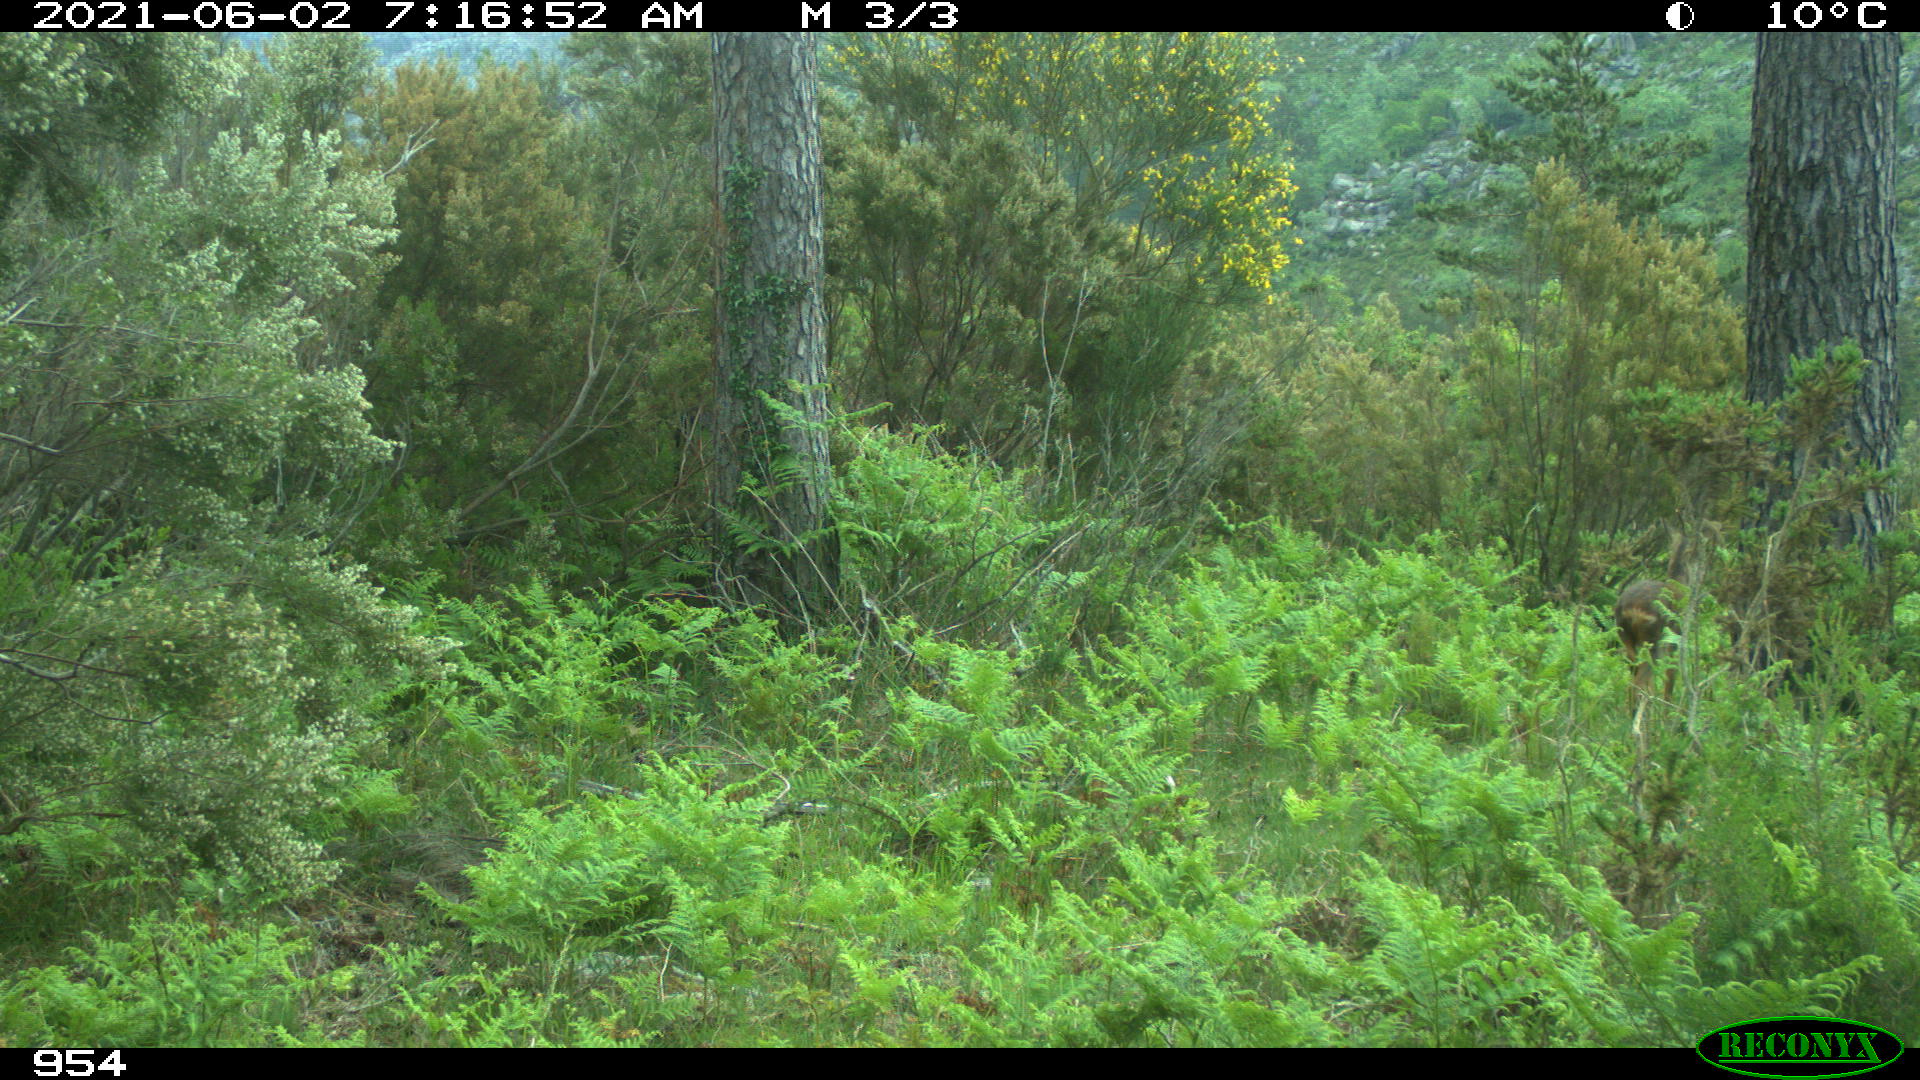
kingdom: Animalia
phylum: Chordata
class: Mammalia
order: Artiodactyla
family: Cervidae
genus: Capreolus
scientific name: Capreolus capreolus
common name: Western roe deer
